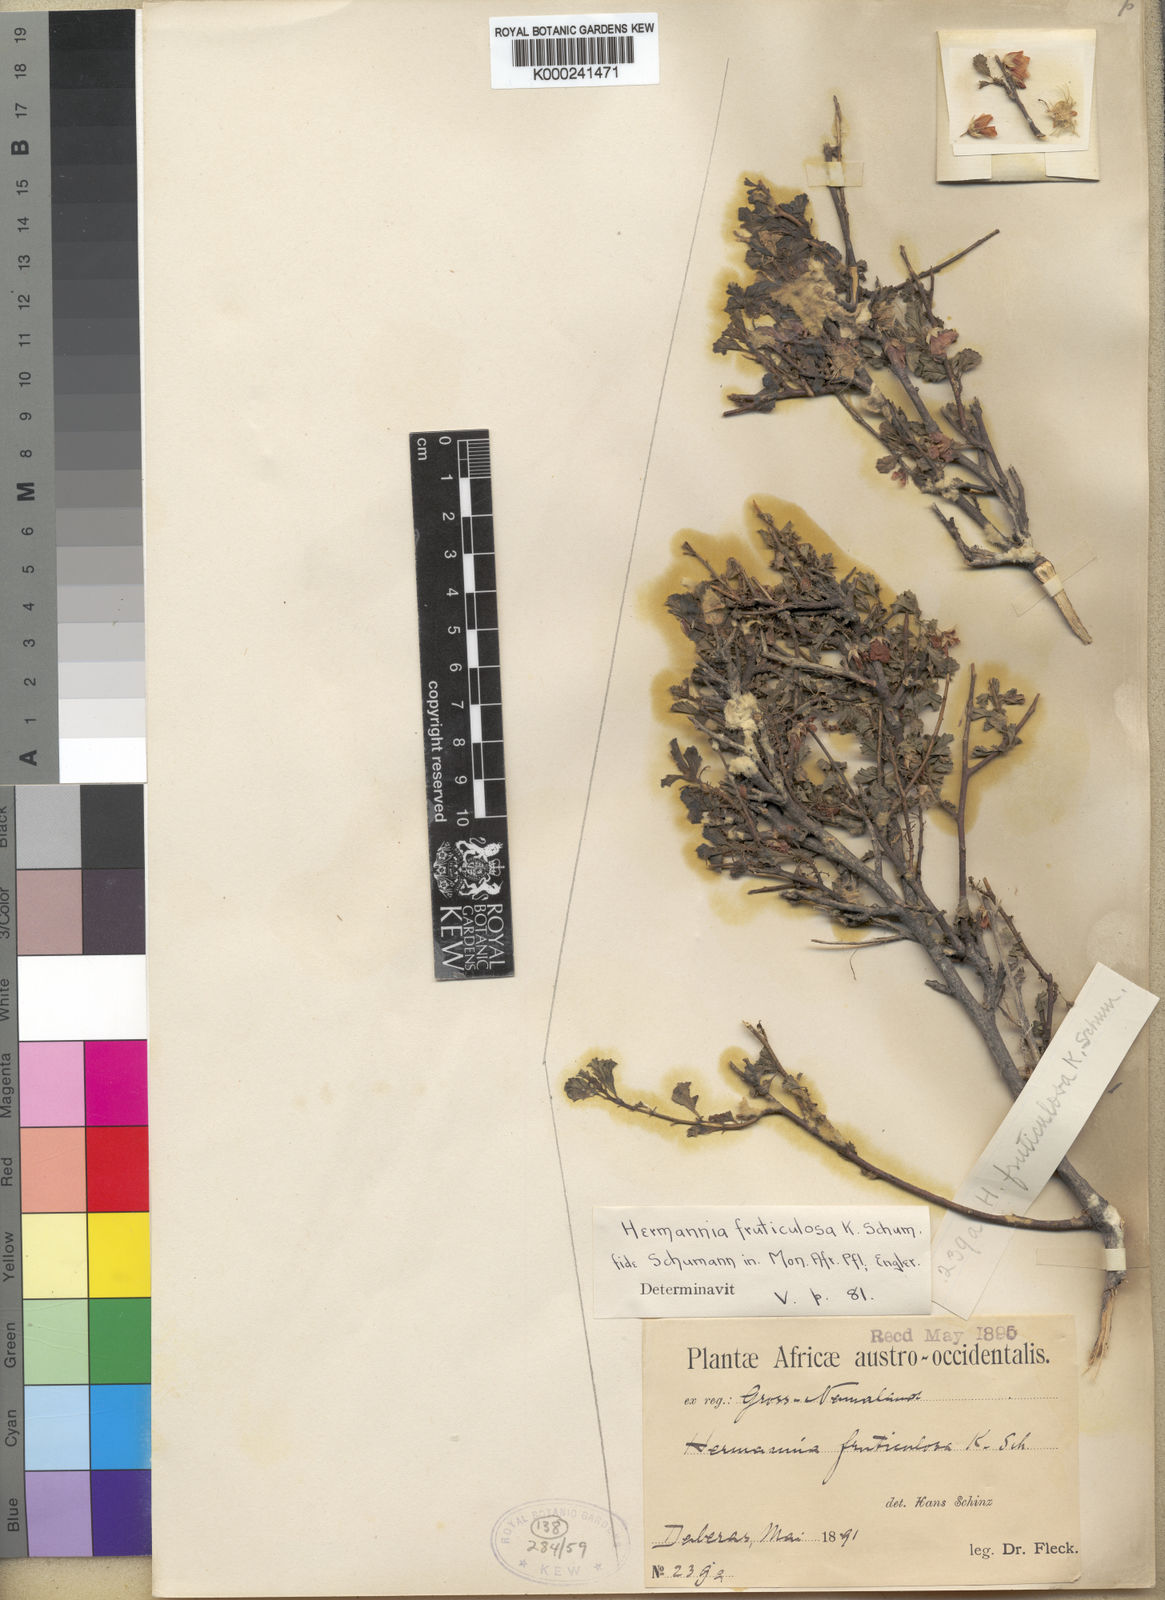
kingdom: Plantae
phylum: Tracheophyta
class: Magnoliopsida
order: Malvales
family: Malvaceae
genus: Hermannia
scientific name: Hermannia fruticulosa
